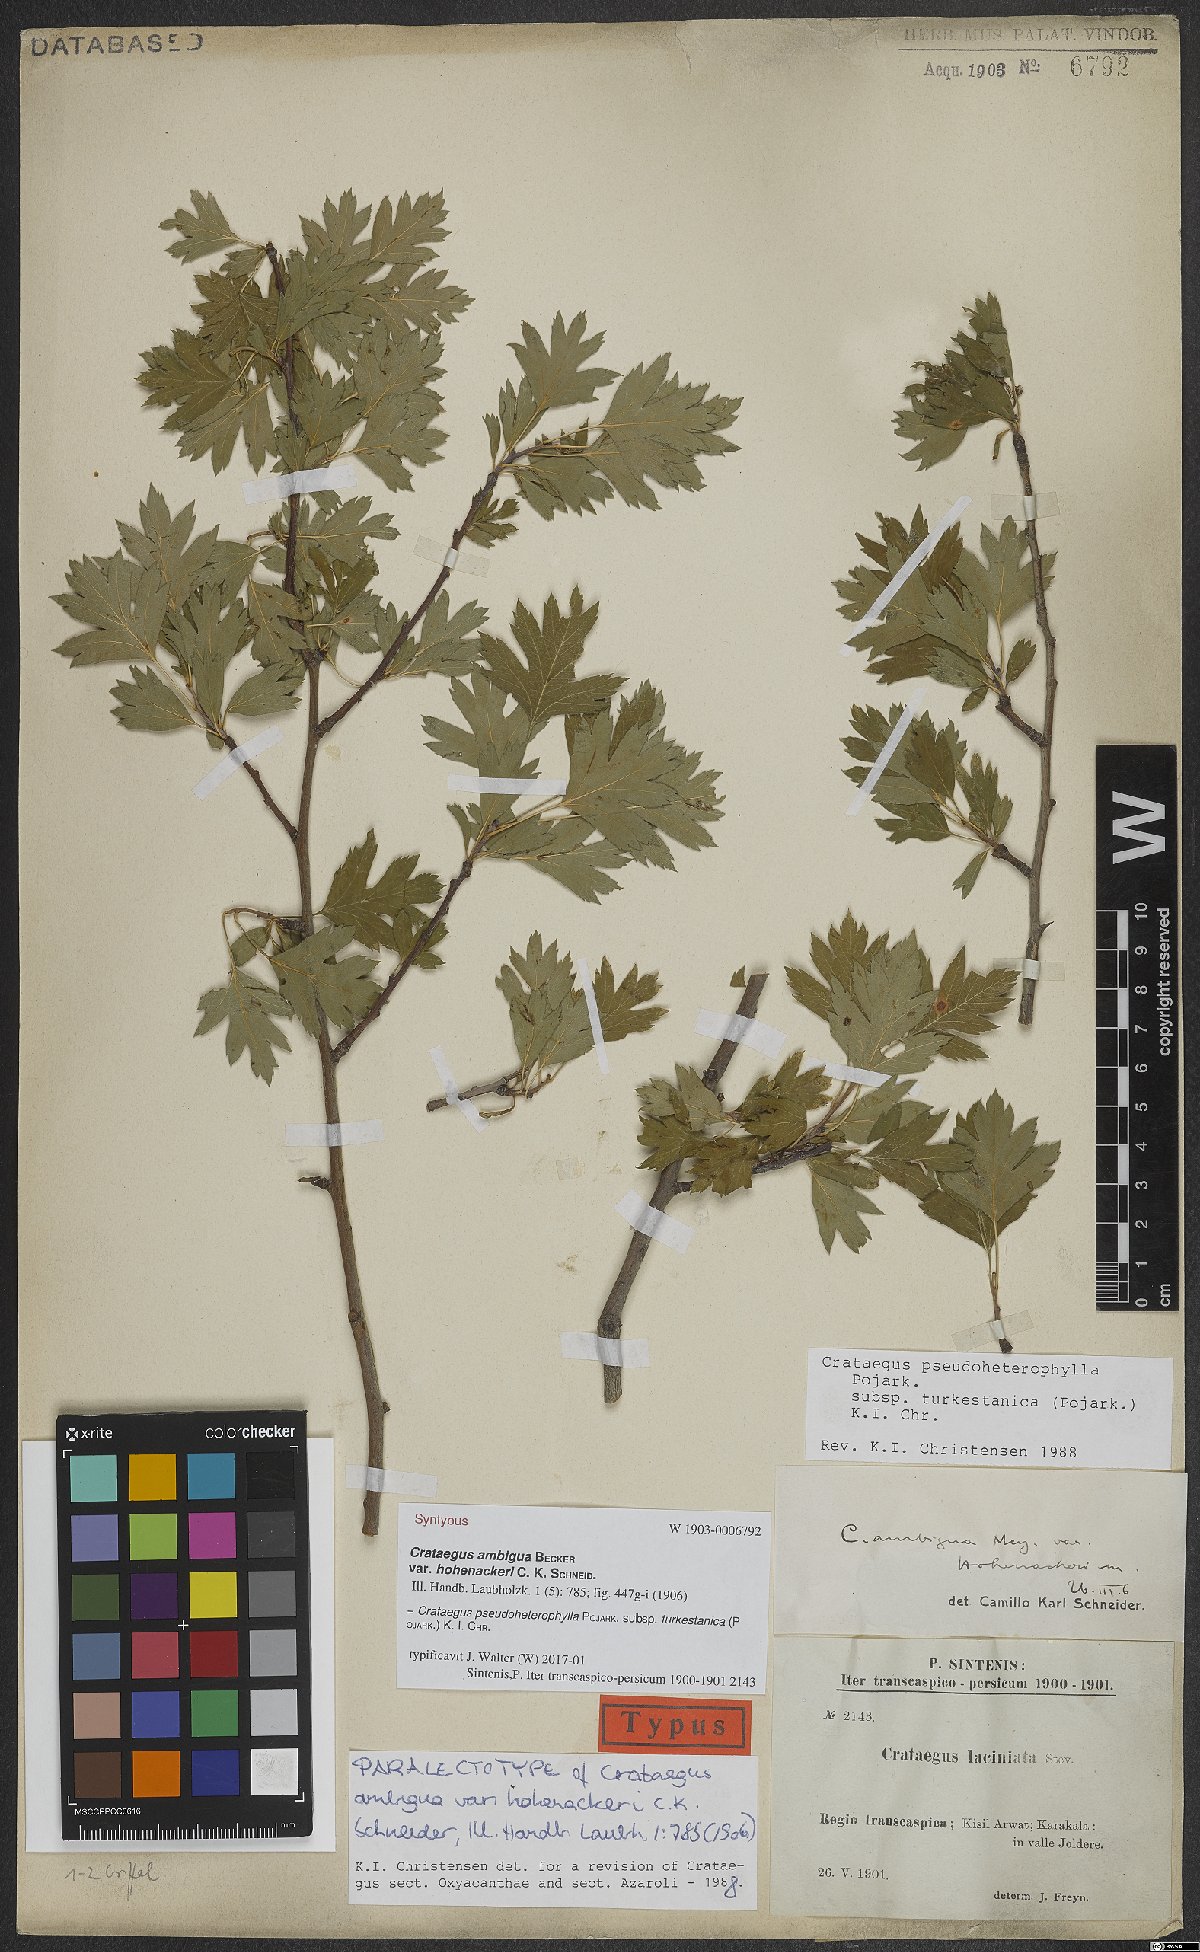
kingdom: Plantae
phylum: Tracheophyta
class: Magnoliopsida
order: Rosales
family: Rosaceae
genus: Crataegus
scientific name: Crataegus turkestanica
